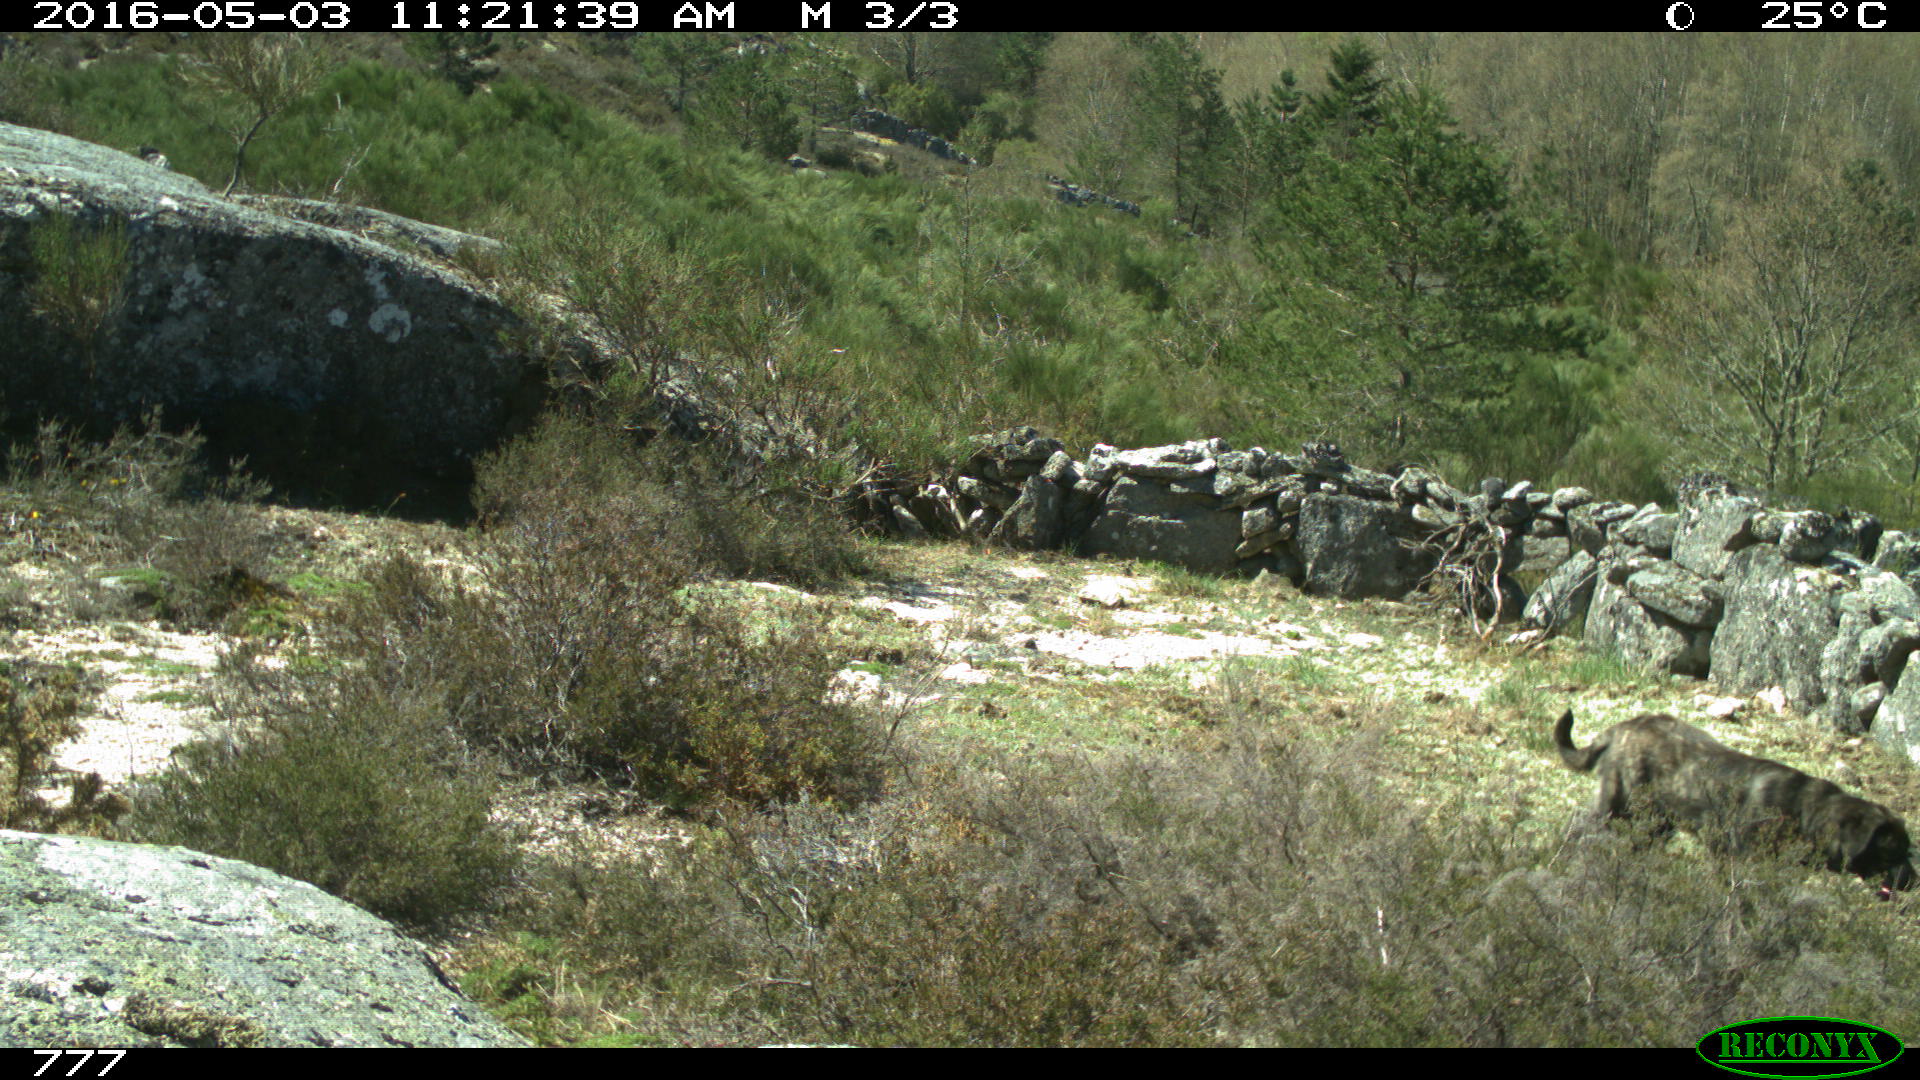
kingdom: Animalia
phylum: Chordata
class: Mammalia
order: Carnivora
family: Canidae
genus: Canis
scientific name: Canis lupus
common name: Gray wolf
